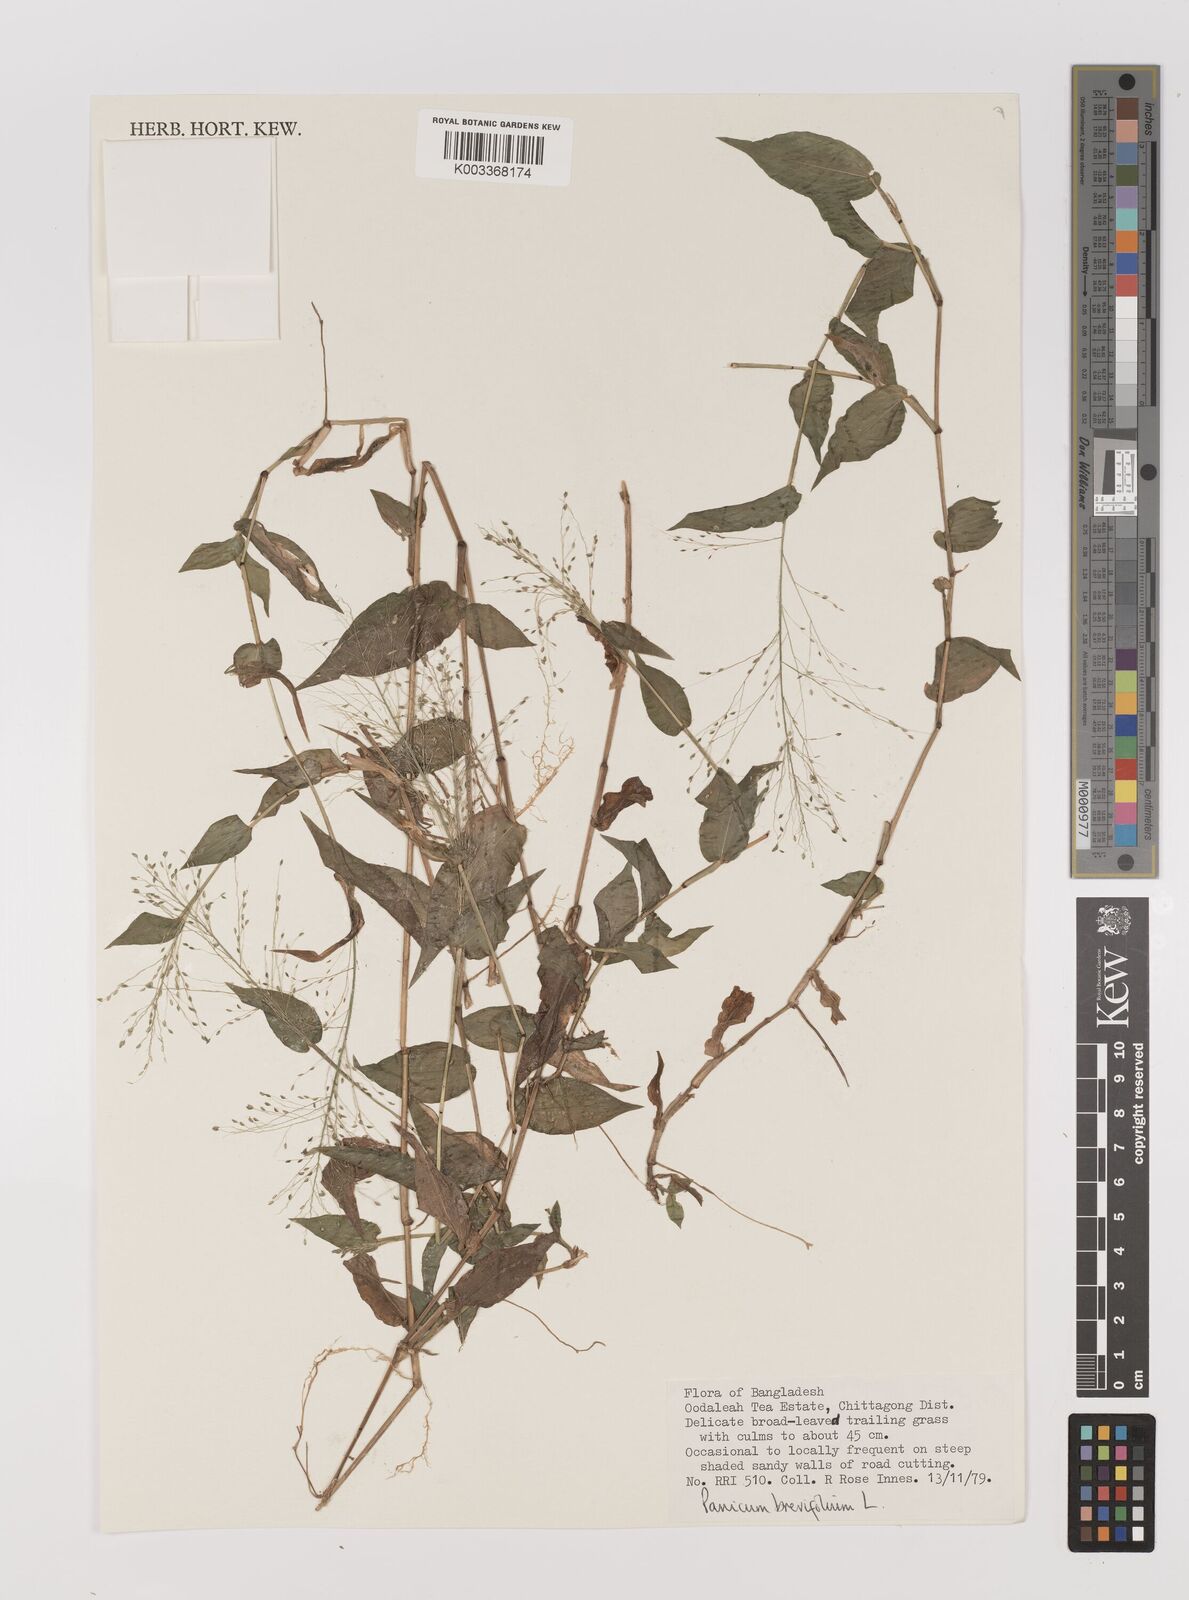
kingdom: Plantae
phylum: Tracheophyta
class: Liliopsida
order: Poales
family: Poaceae
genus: Panicum
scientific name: Panicum brevifolium
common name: Shortleaf panic grass
